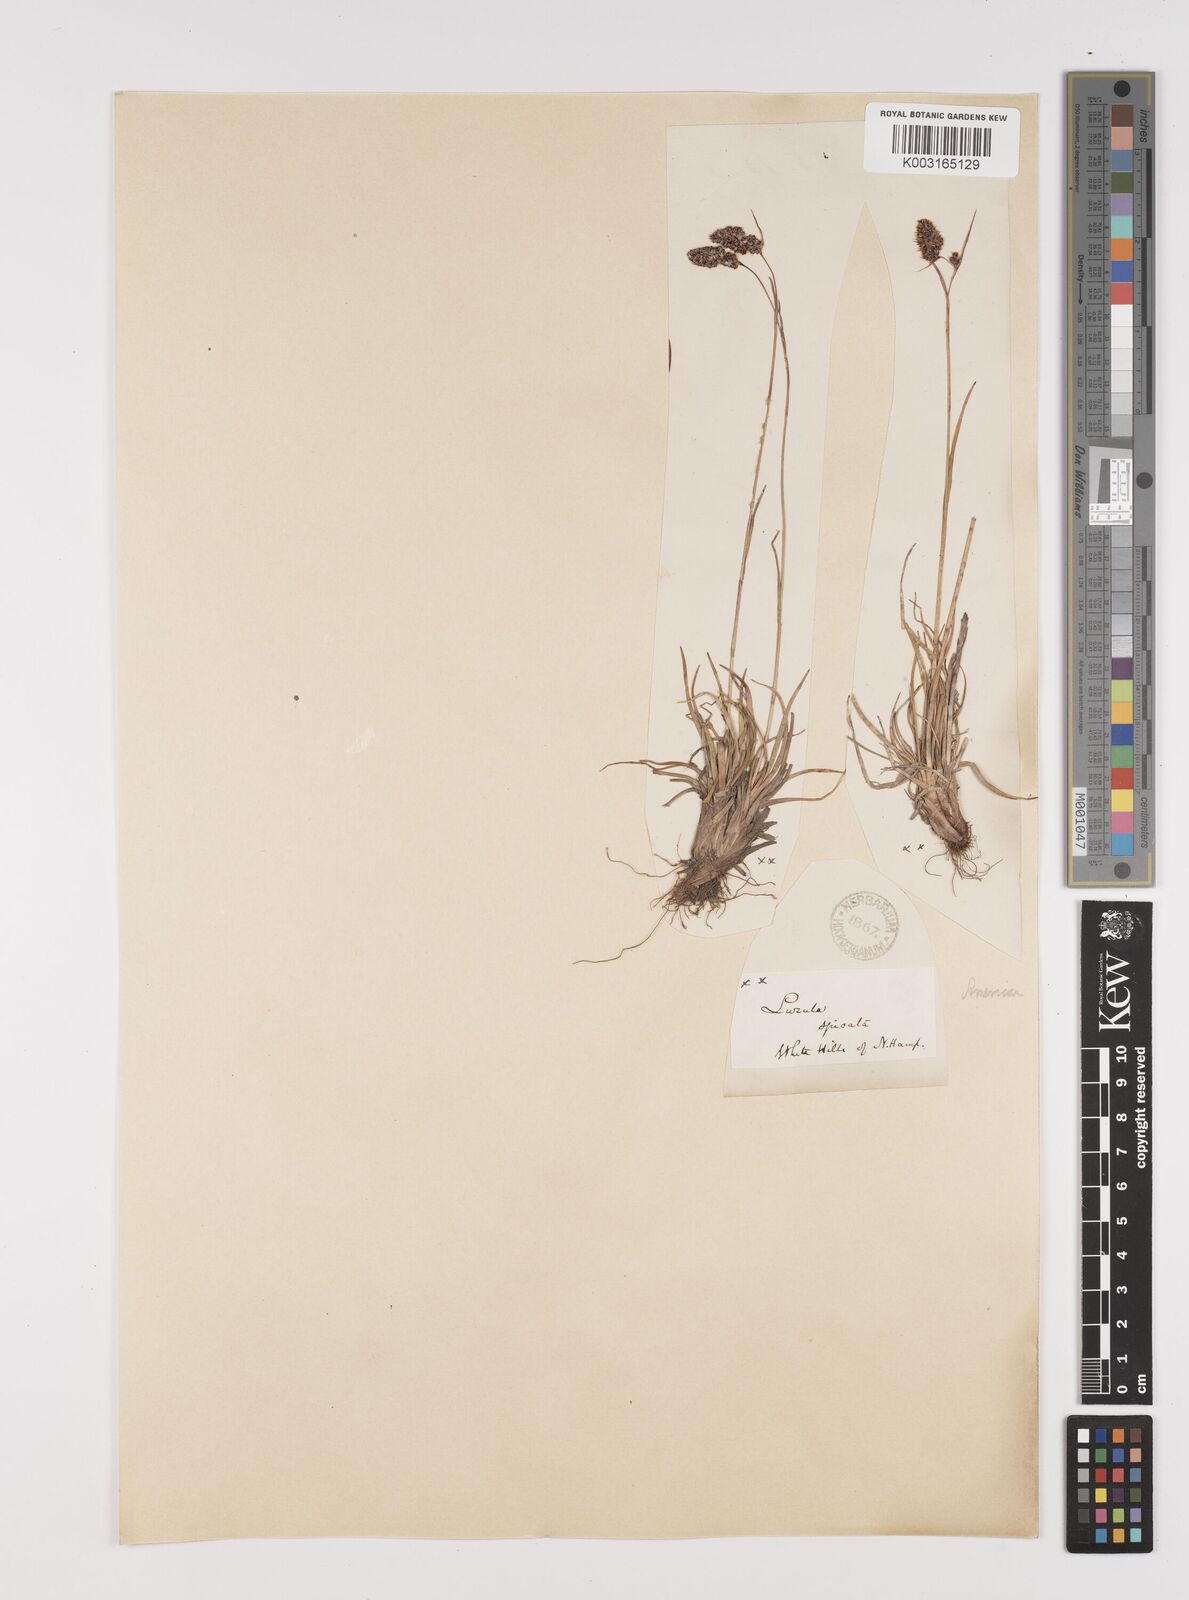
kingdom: Plantae
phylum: Tracheophyta
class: Liliopsida
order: Poales
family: Juncaceae
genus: Luzula
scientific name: Luzula spicata
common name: Spiked wood-rush
